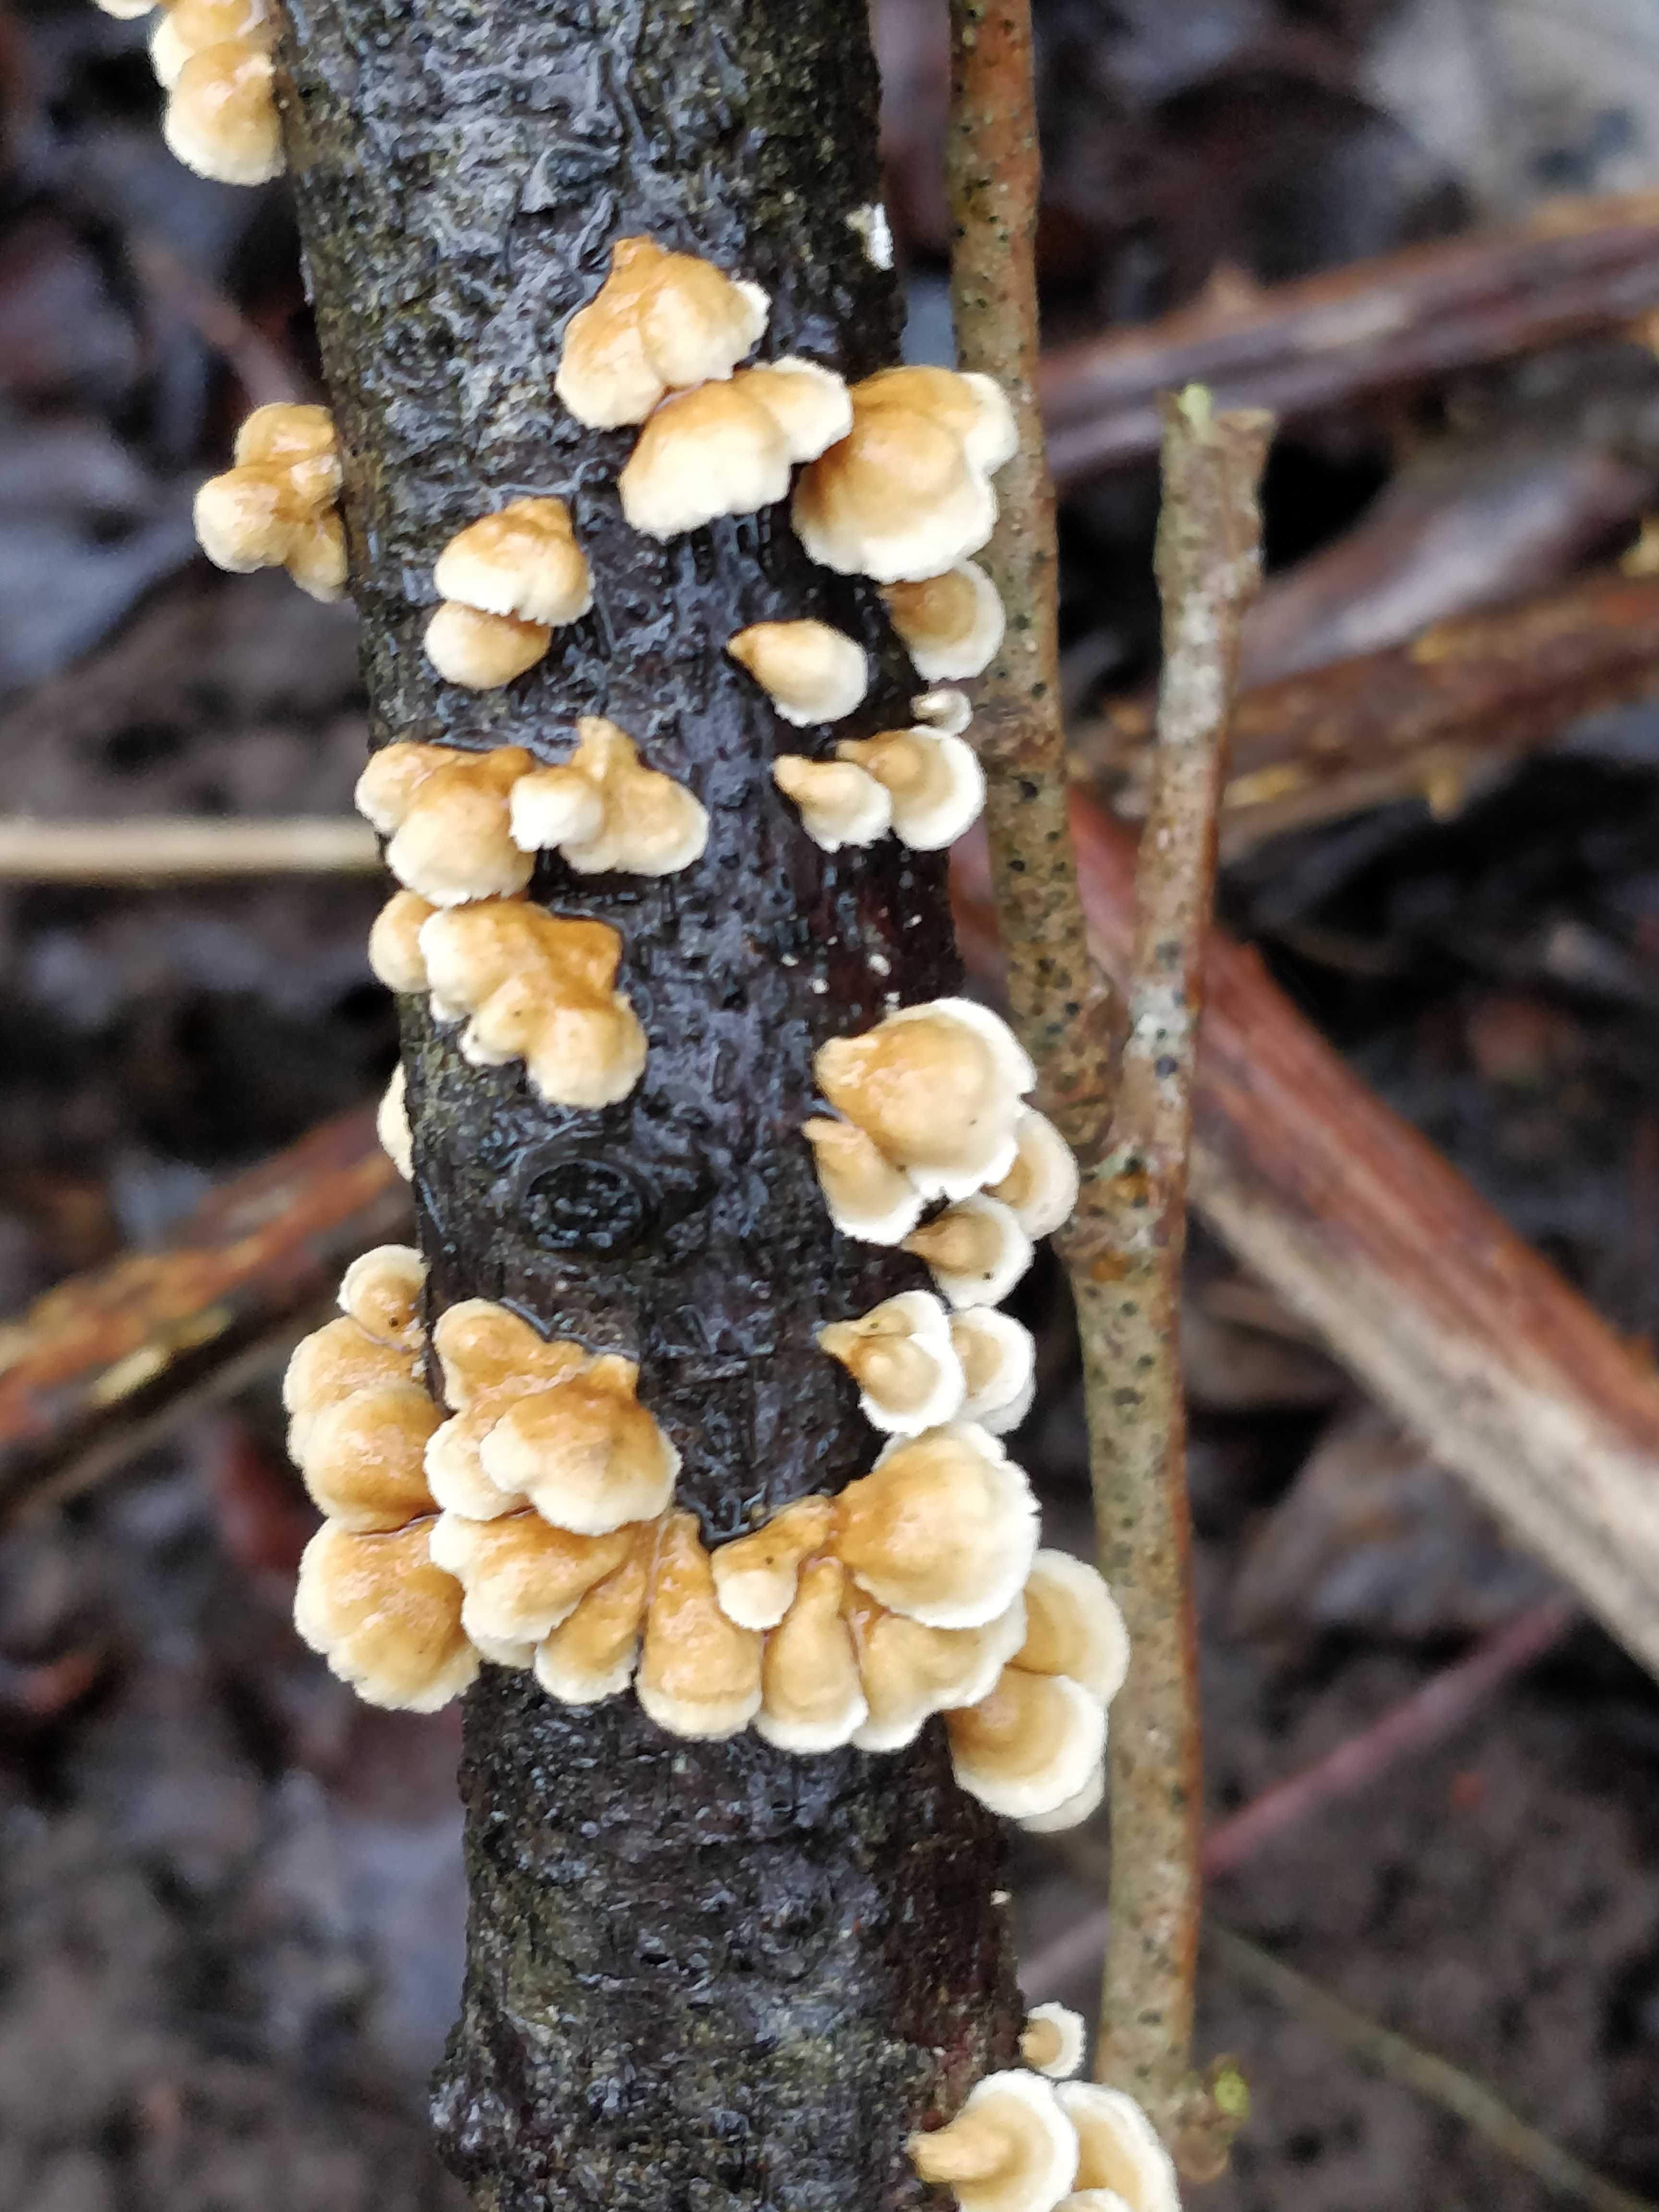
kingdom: Fungi
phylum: Basidiomycota
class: Agaricomycetes
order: Amylocorticiales
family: Amylocorticiaceae
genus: Plicaturopsis
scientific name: Plicaturopsis crispa
